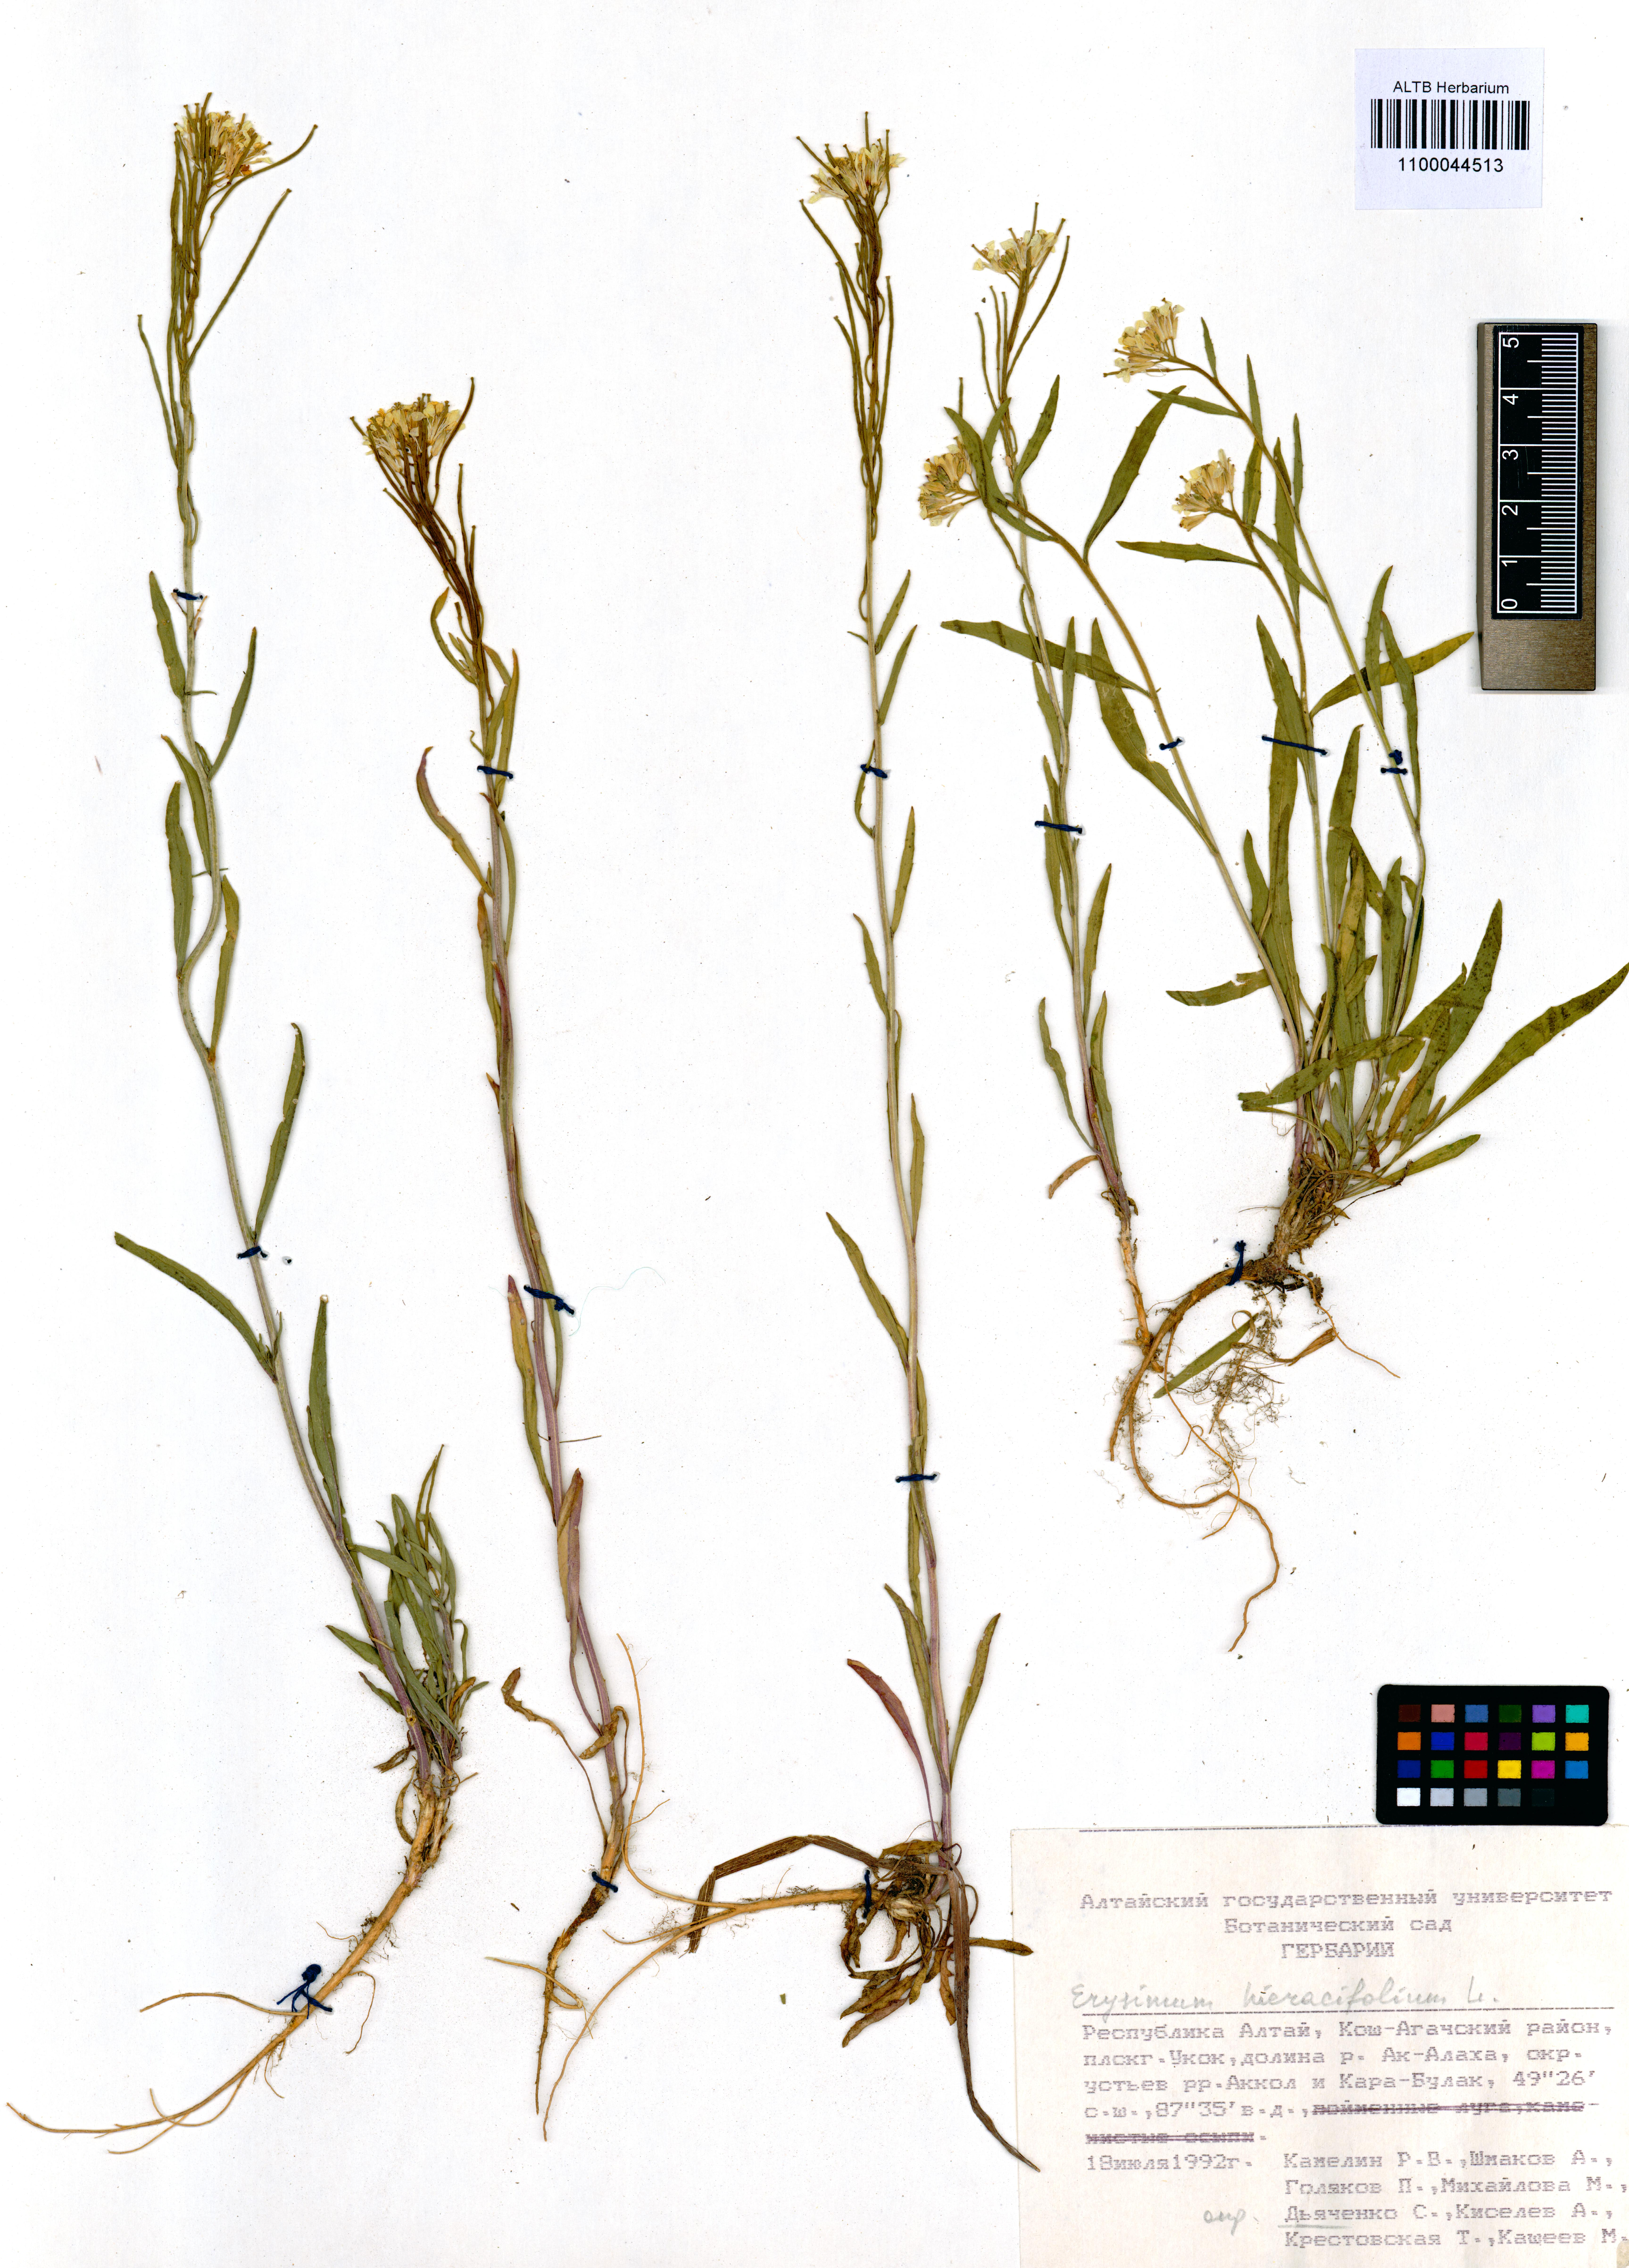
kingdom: Plantae
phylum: Tracheophyta
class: Magnoliopsida
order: Brassicales
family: Brassicaceae
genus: Erysimum
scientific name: Erysimum hieraciifolium
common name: European wallflower
